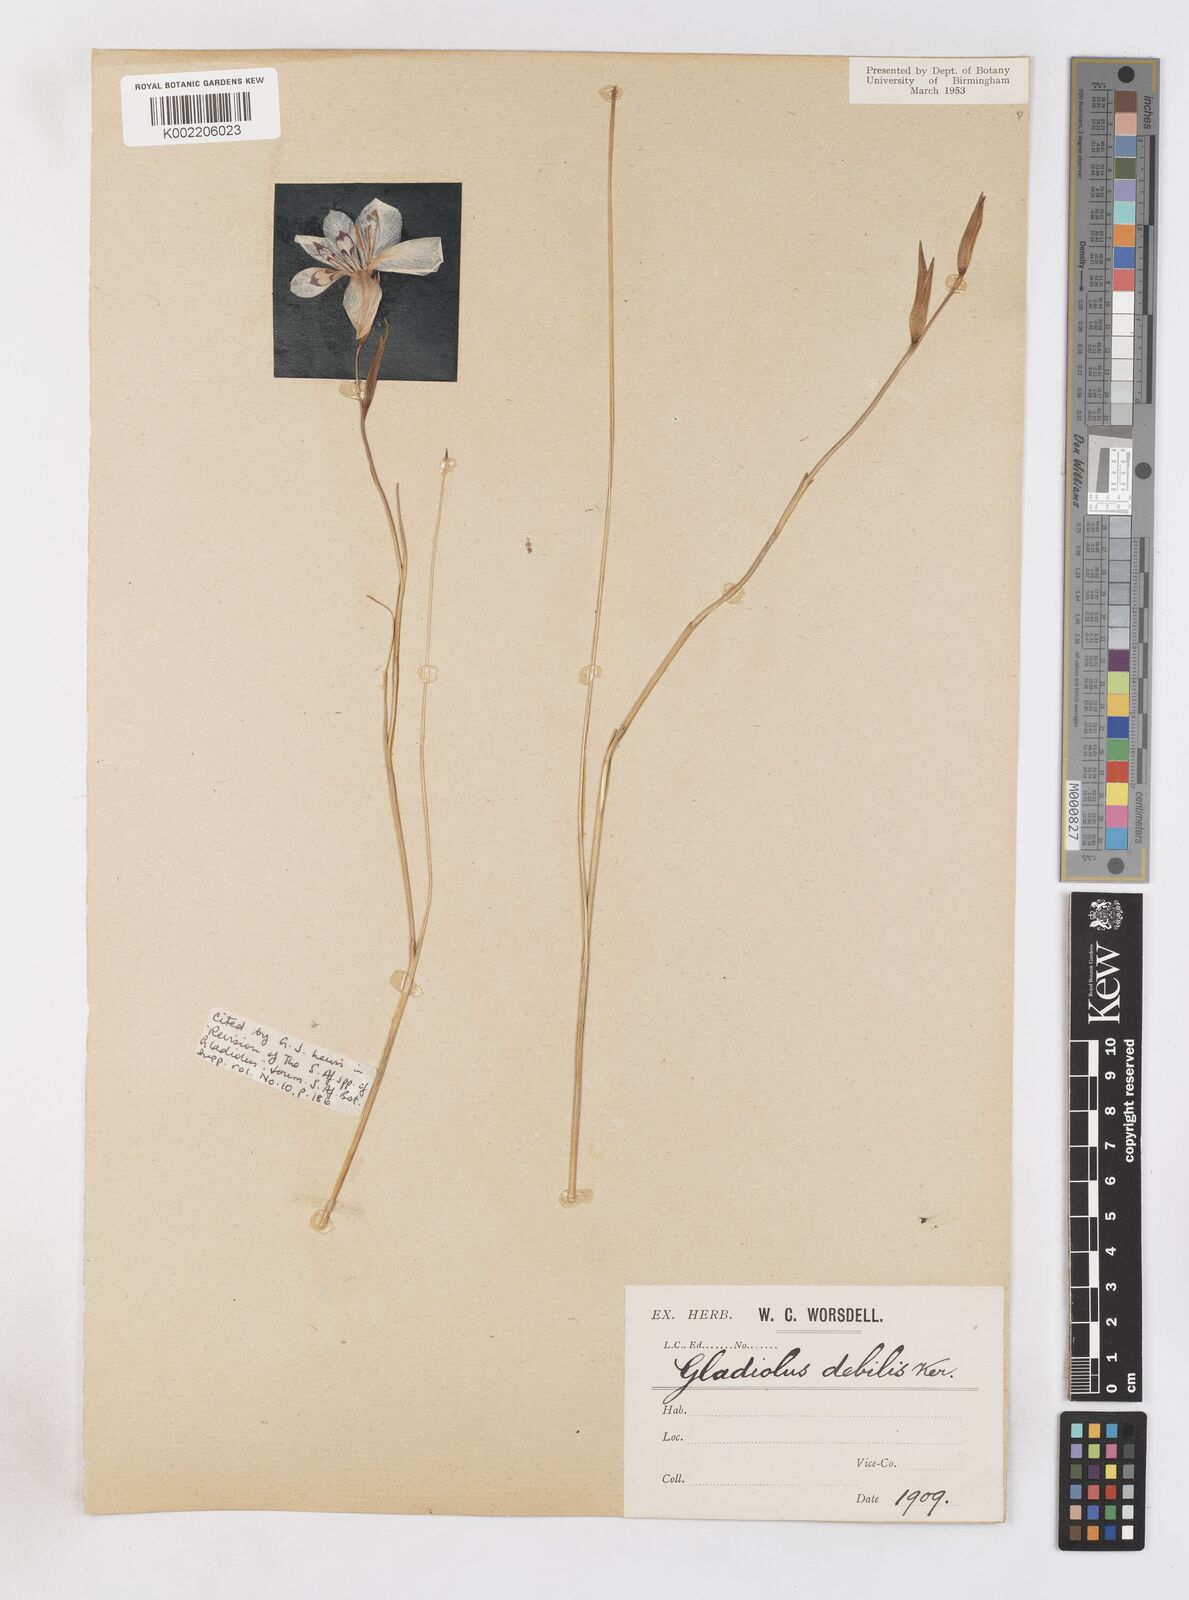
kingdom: Plantae
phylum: Tracheophyta
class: Liliopsida
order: Asparagales
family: Iridaceae
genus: Gladiolus
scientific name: Gladiolus debilis
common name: Painted-lady
